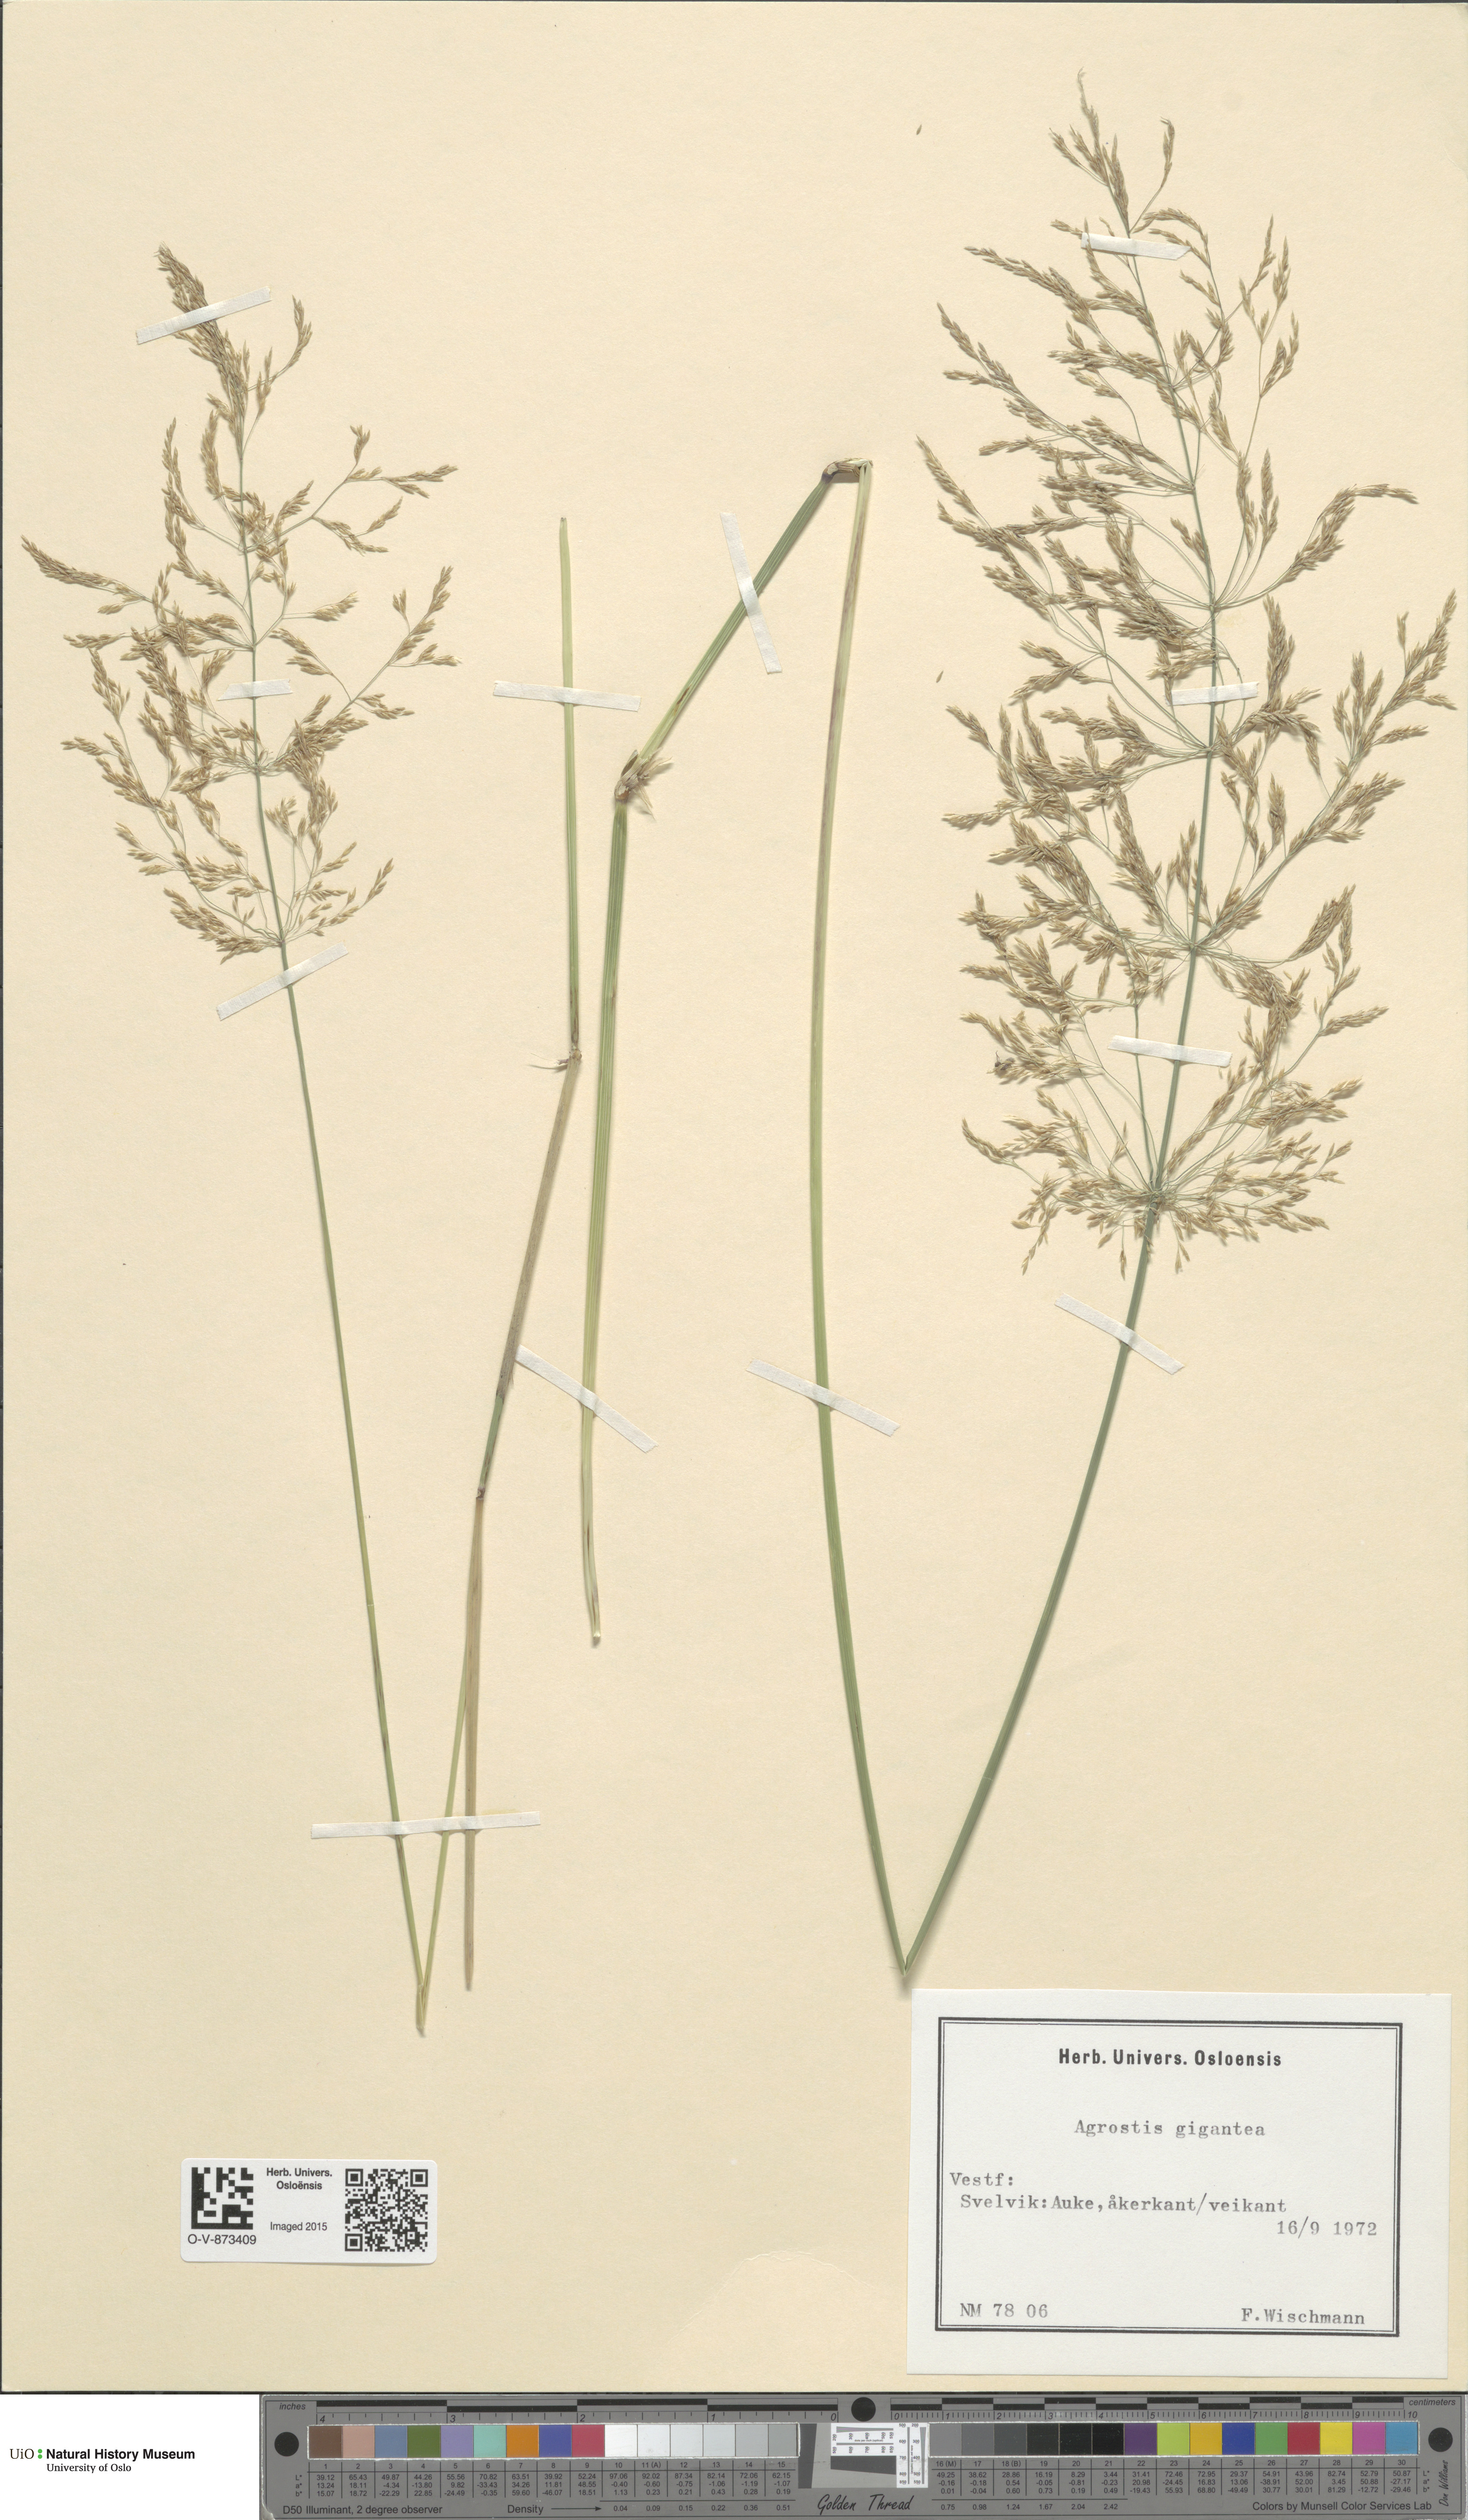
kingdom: Plantae
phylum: Tracheophyta
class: Liliopsida
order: Poales
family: Poaceae
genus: Agrostis
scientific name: Agrostis gigantea
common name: Black bent
